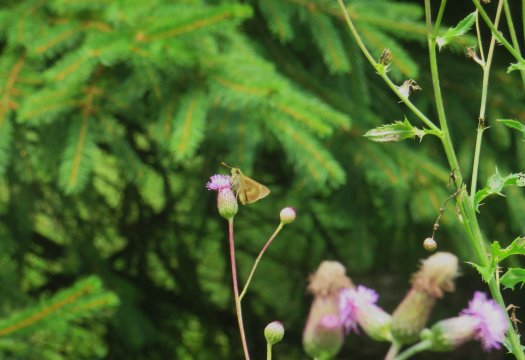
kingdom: Animalia
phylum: Arthropoda
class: Insecta
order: Lepidoptera
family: Hesperiidae
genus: Polites
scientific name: Polites egeremet
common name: Northern Broken-Dash
